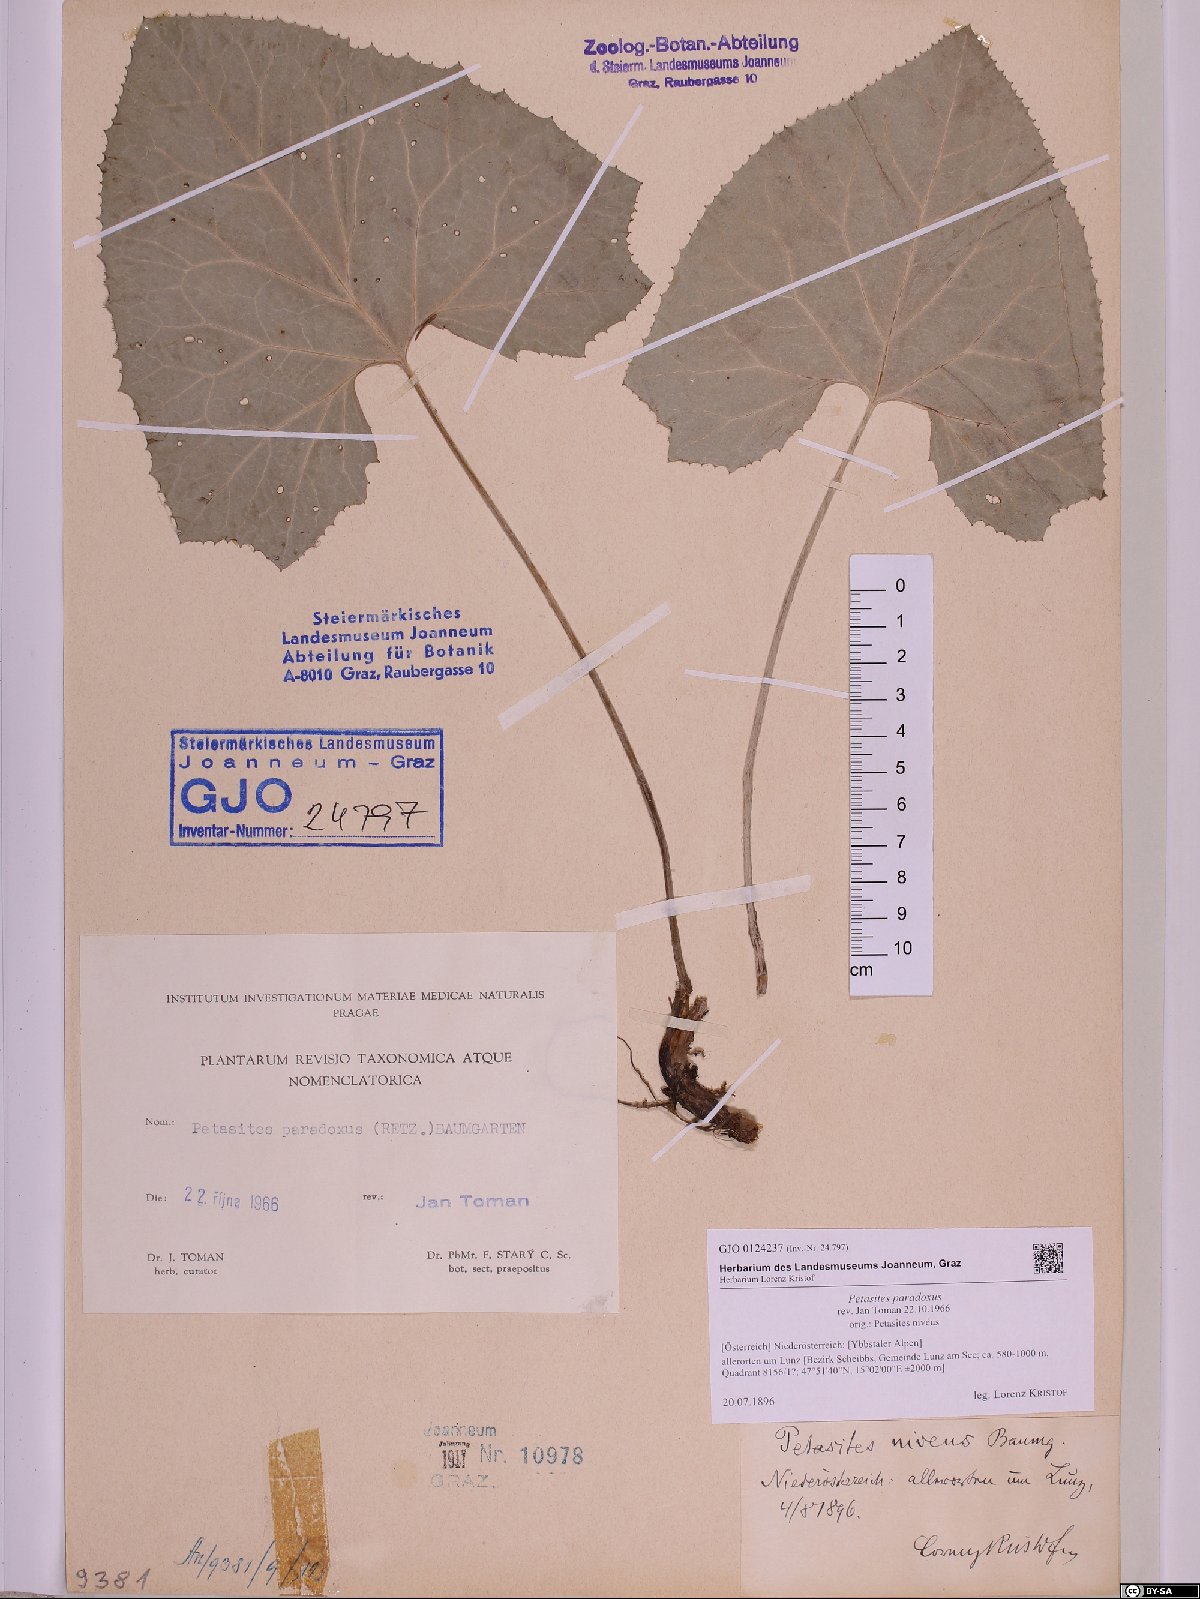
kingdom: Plantae
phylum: Tracheophyta
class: Magnoliopsida
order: Asterales
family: Asteraceae
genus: Petasites
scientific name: Petasites paradoxus
